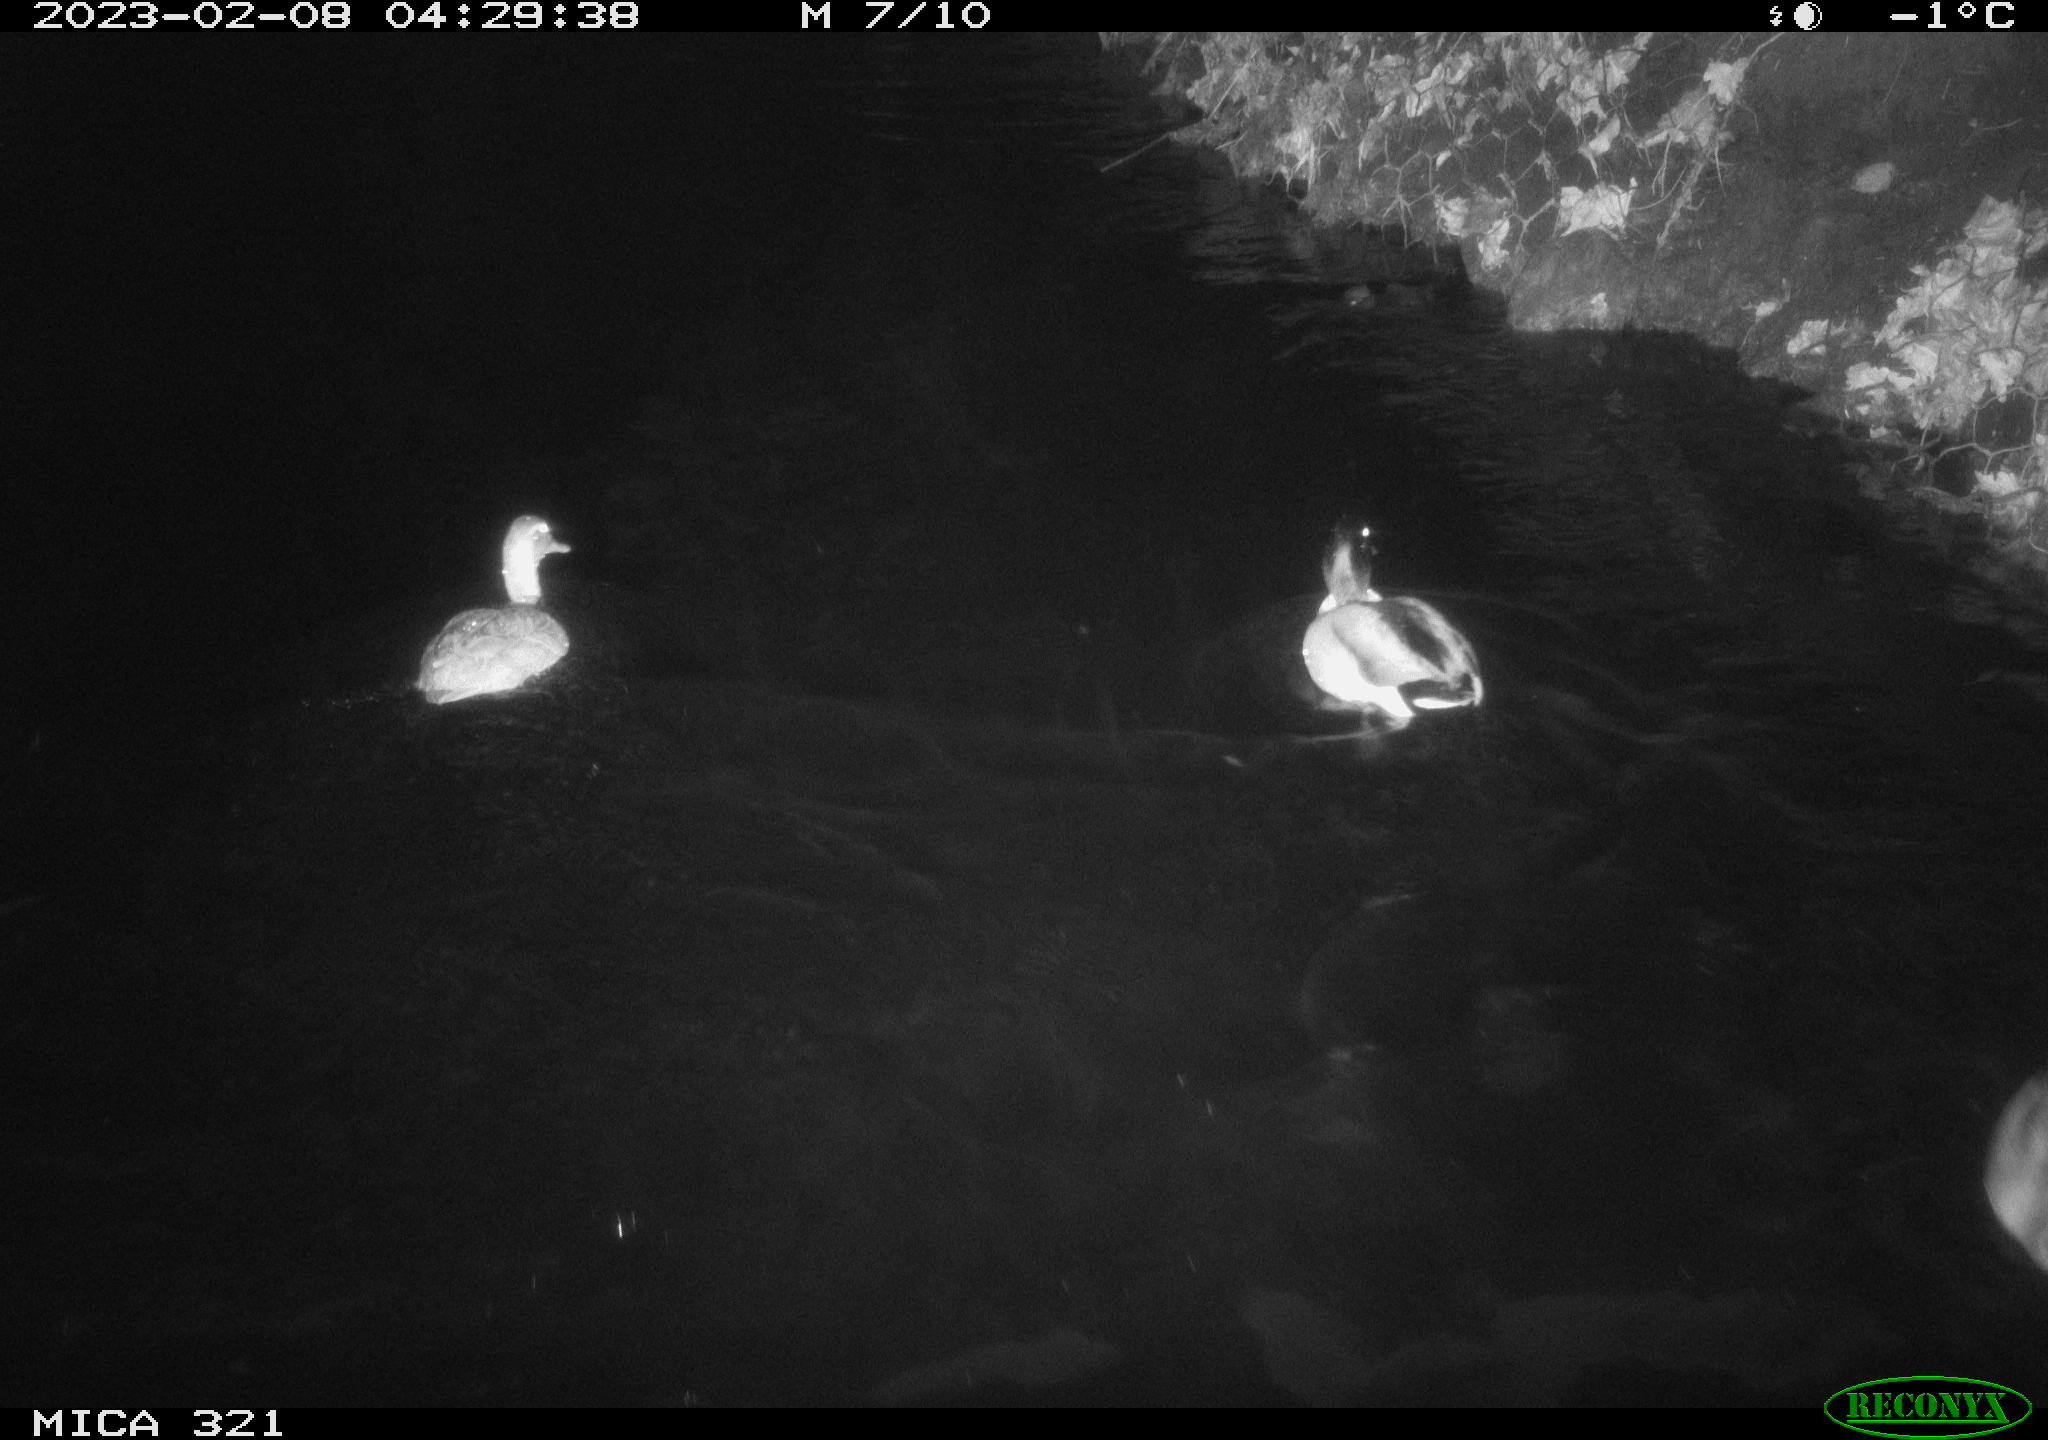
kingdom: Animalia
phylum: Chordata
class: Aves
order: Anseriformes
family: Anatidae
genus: Anas
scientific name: Anas
